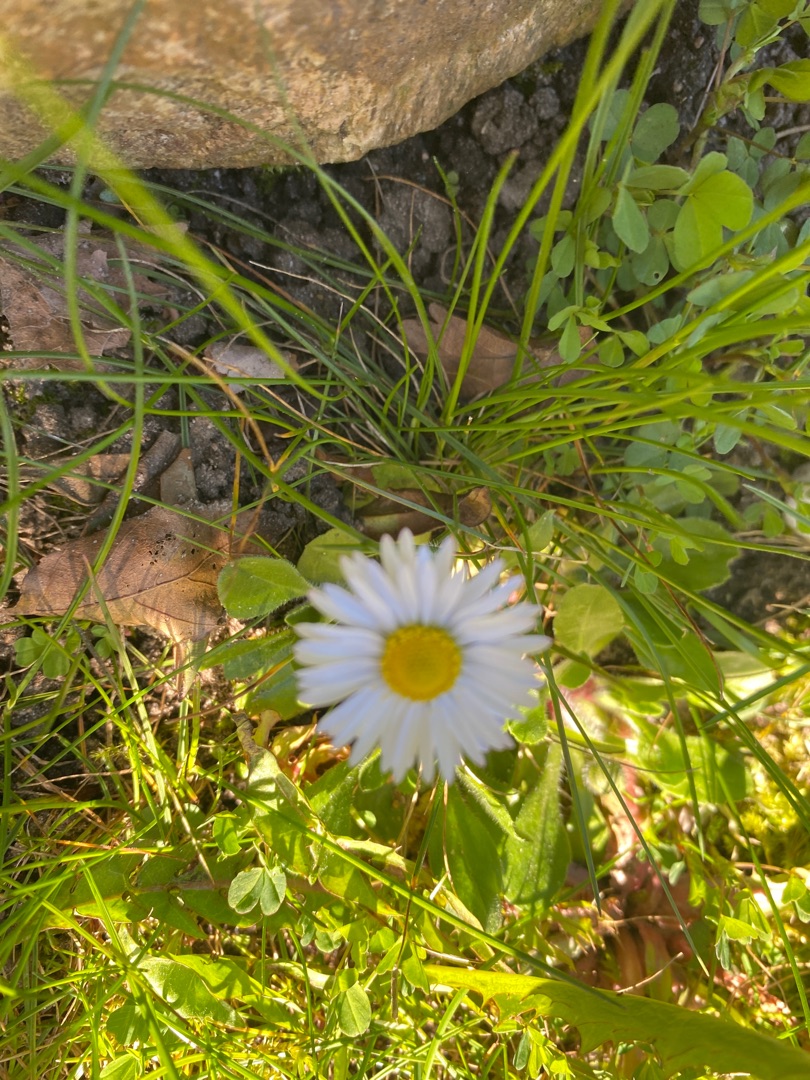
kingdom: Plantae
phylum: Tracheophyta
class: Magnoliopsida
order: Asterales
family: Asteraceae
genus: Bellis
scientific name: Bellis perennis
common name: Tusindfryd
